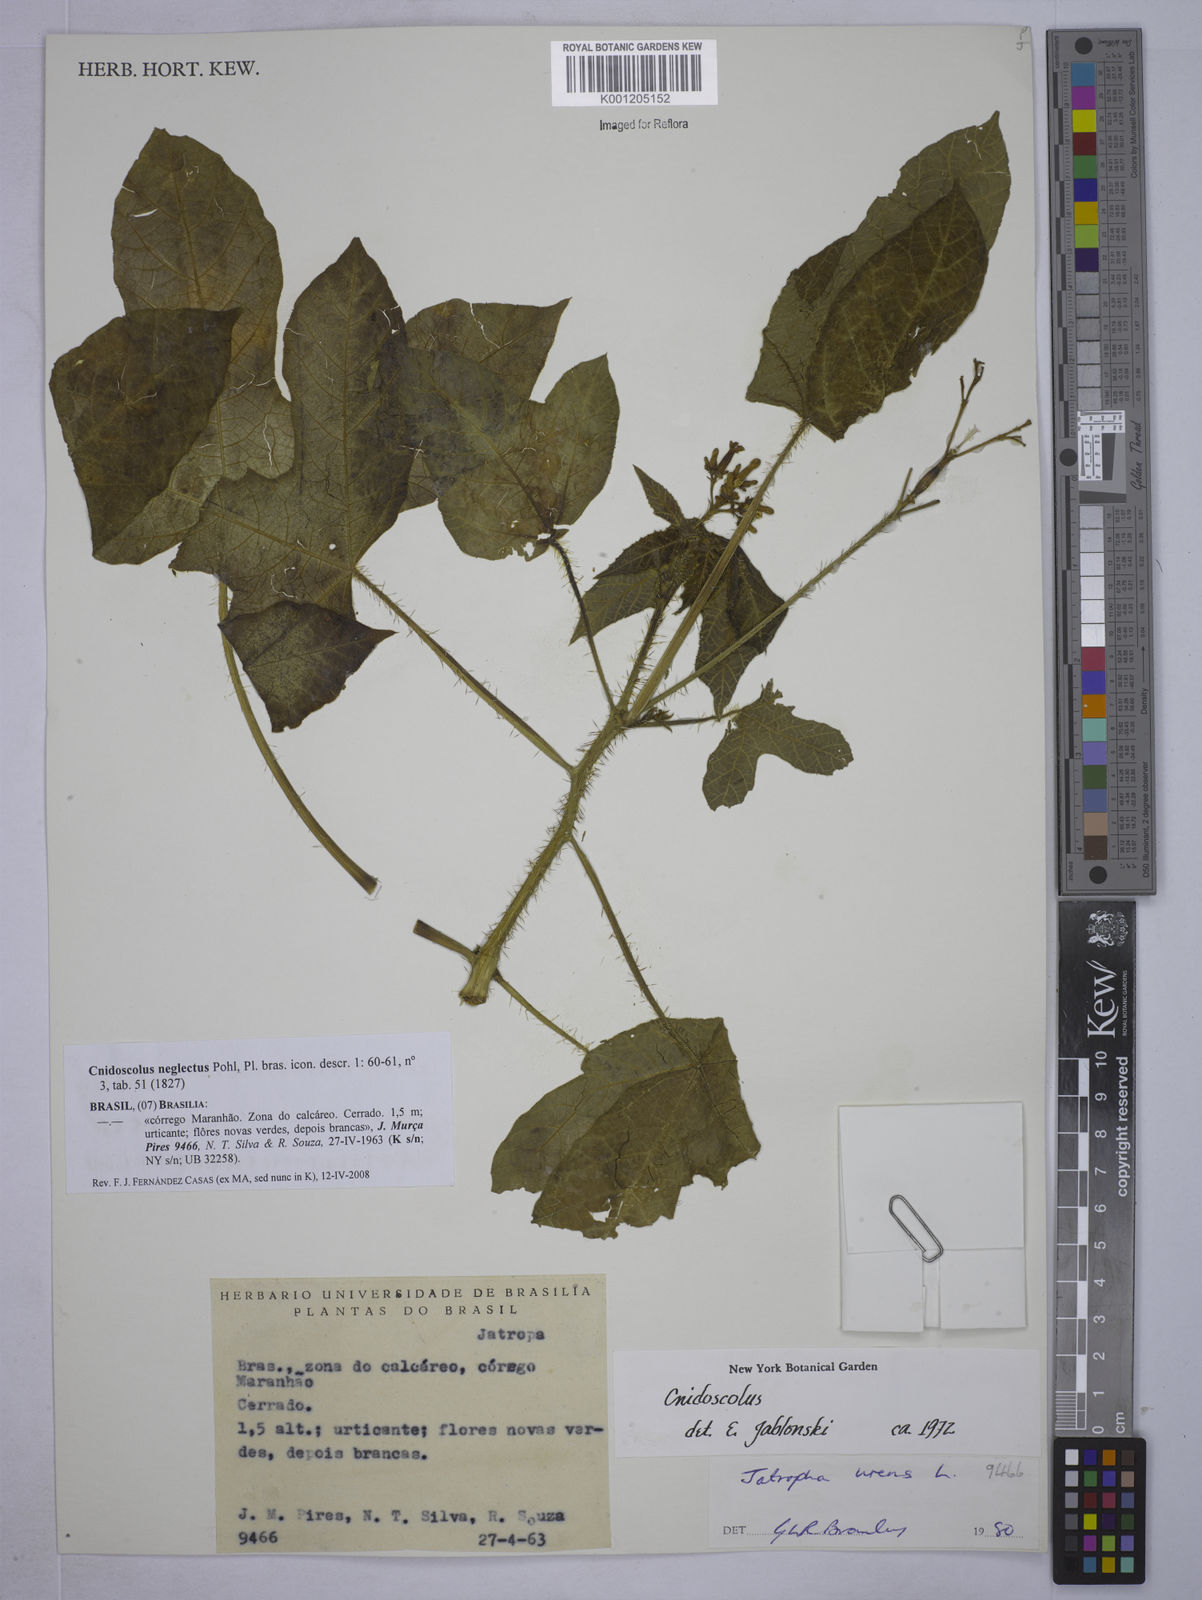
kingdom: Plantae
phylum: Tracheophyta
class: Magnoliopsida
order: Malpighiales
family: Euphorbiaceae
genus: Cnidoscolus
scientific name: Cnidoscolus neglectus
